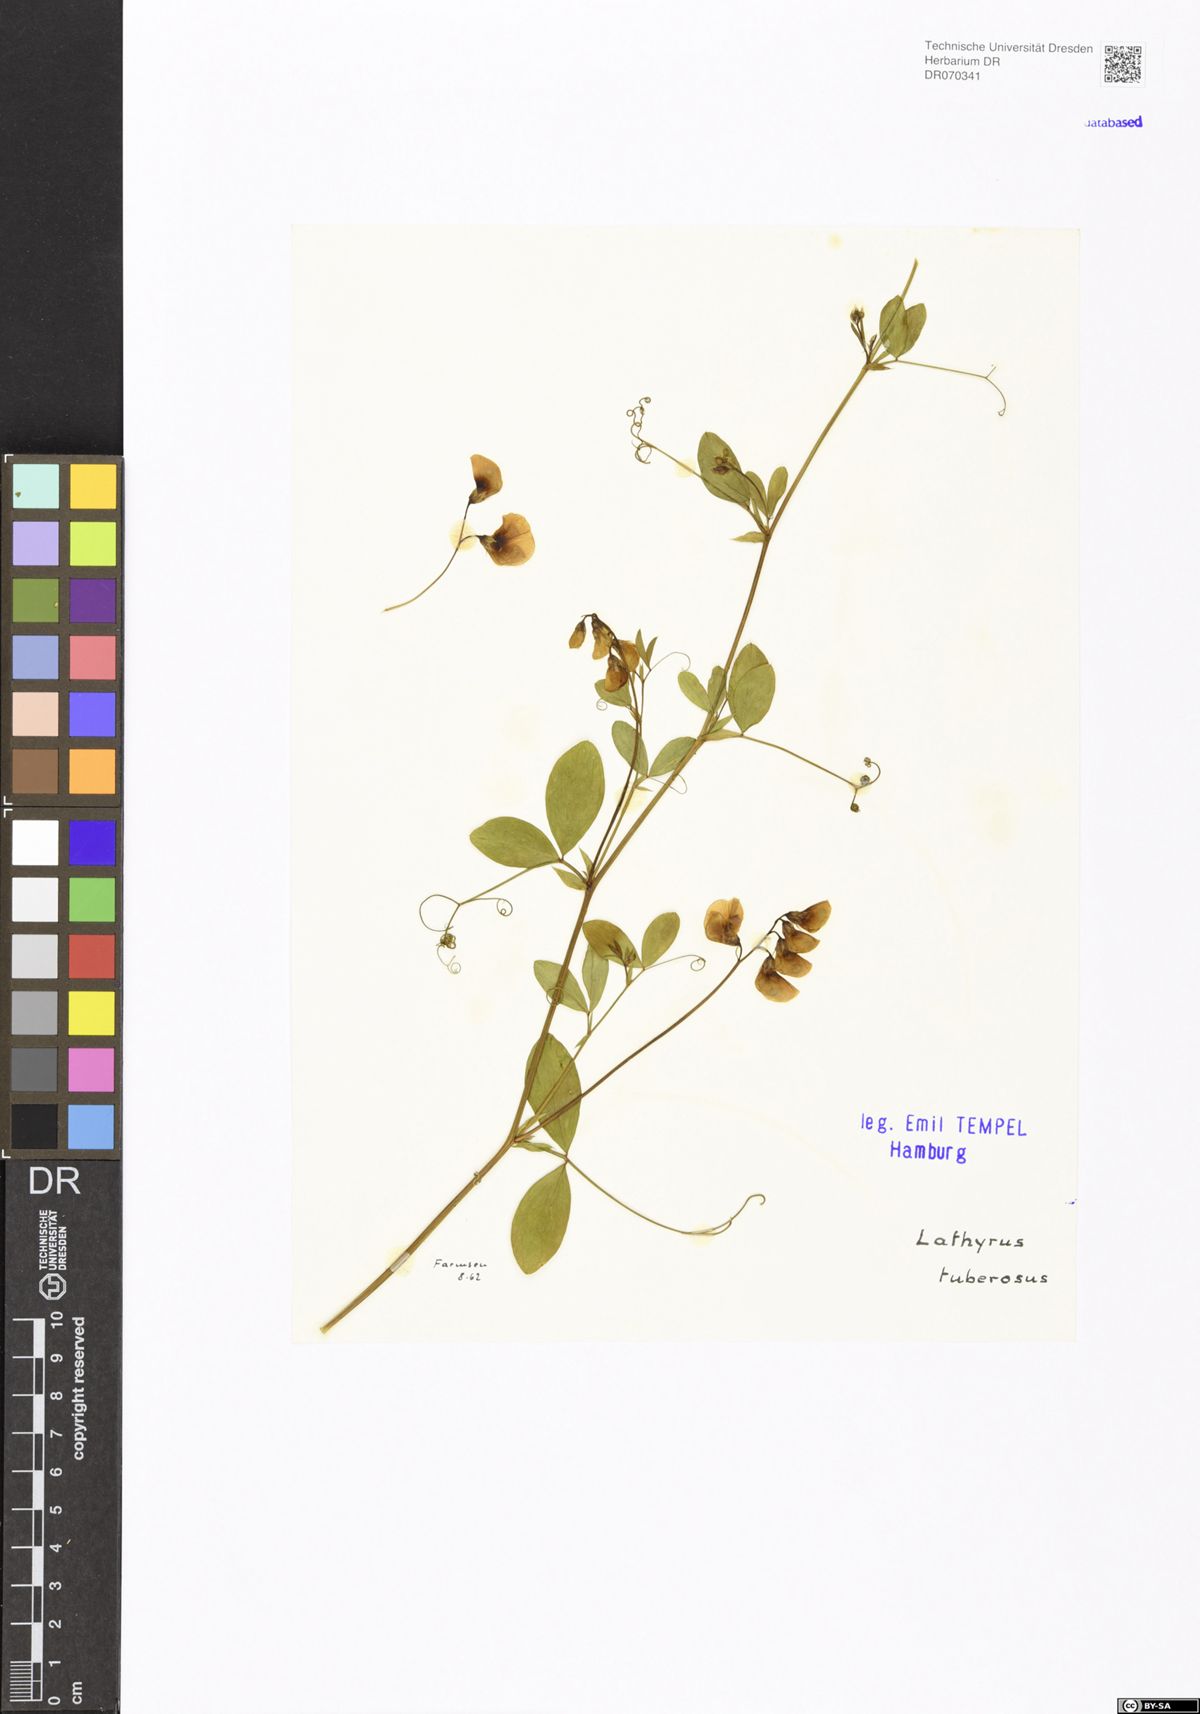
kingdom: Plantae
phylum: Tracheophyta
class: Magnoliopsida
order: Fabales
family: Fabaceae
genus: Lathyrus
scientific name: Lathyrus tuberosus
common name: Tuberous pea
